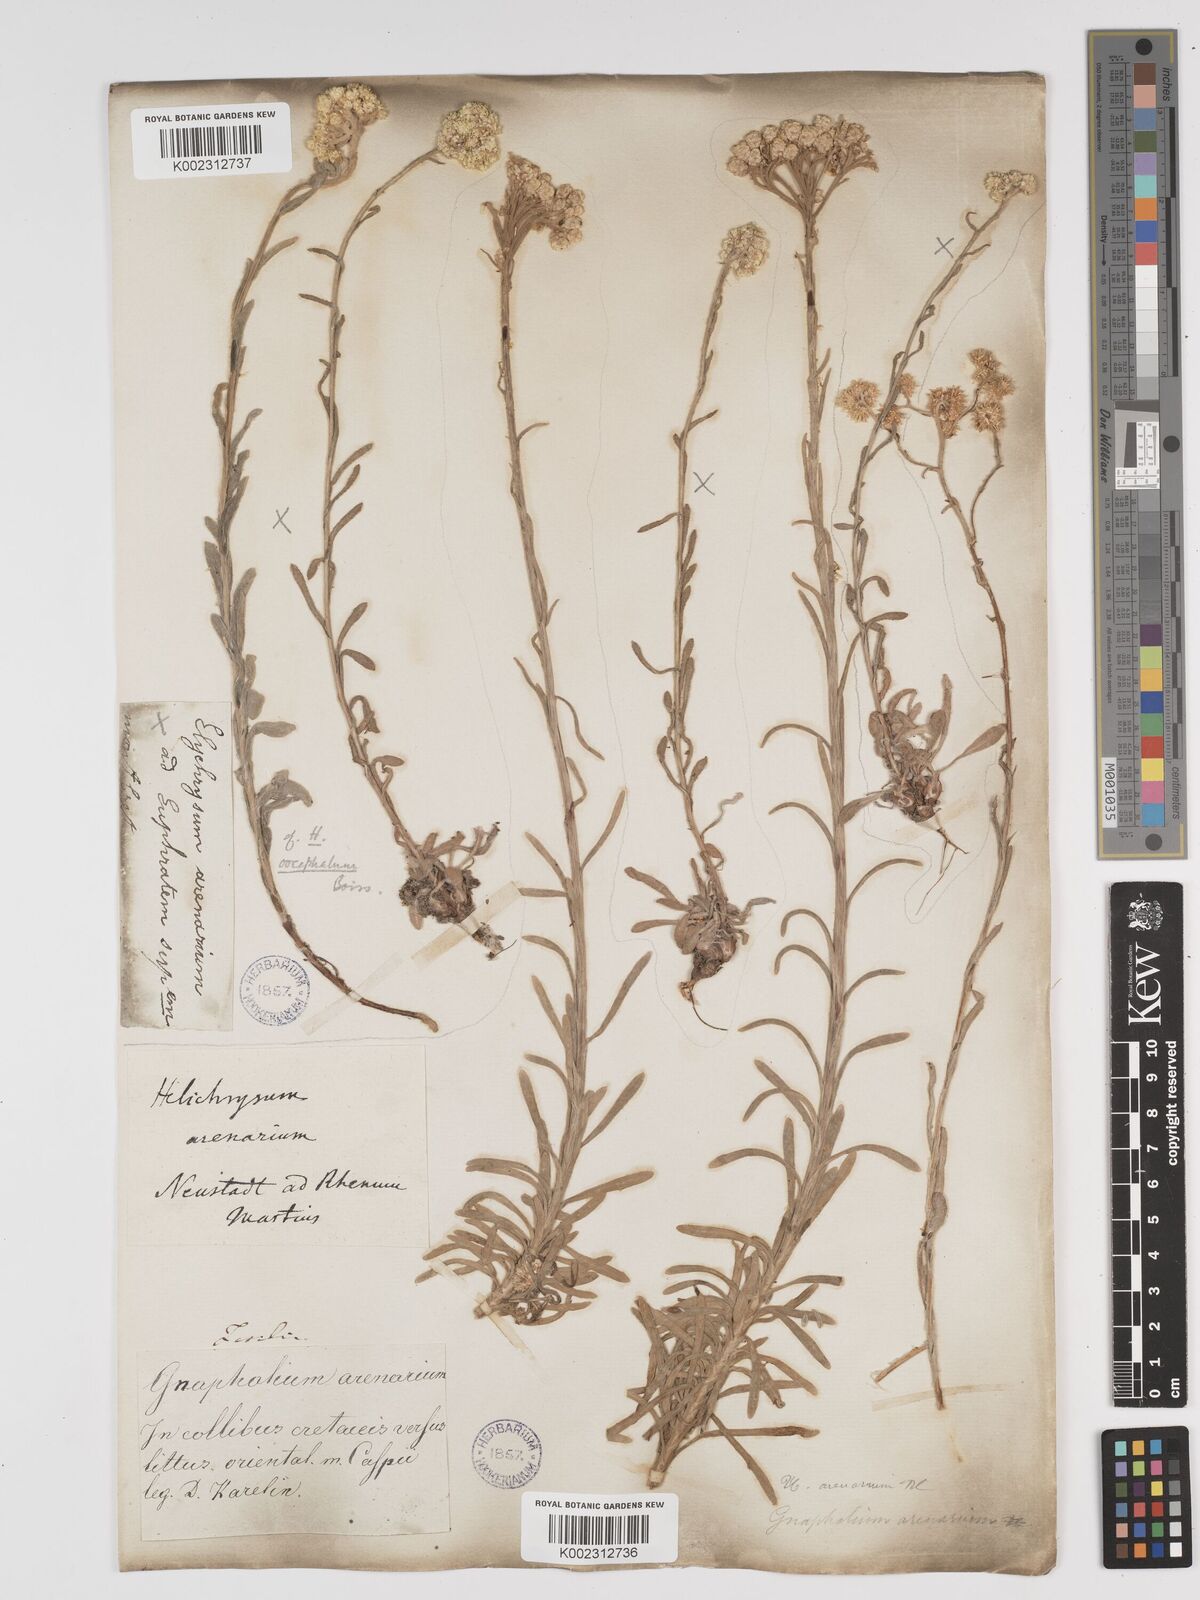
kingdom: Plantae
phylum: Tracheophyta
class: Magnoliopsida
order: Asterales
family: Asteraceae
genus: Helichrysum
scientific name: Helichrysum oocephalum
